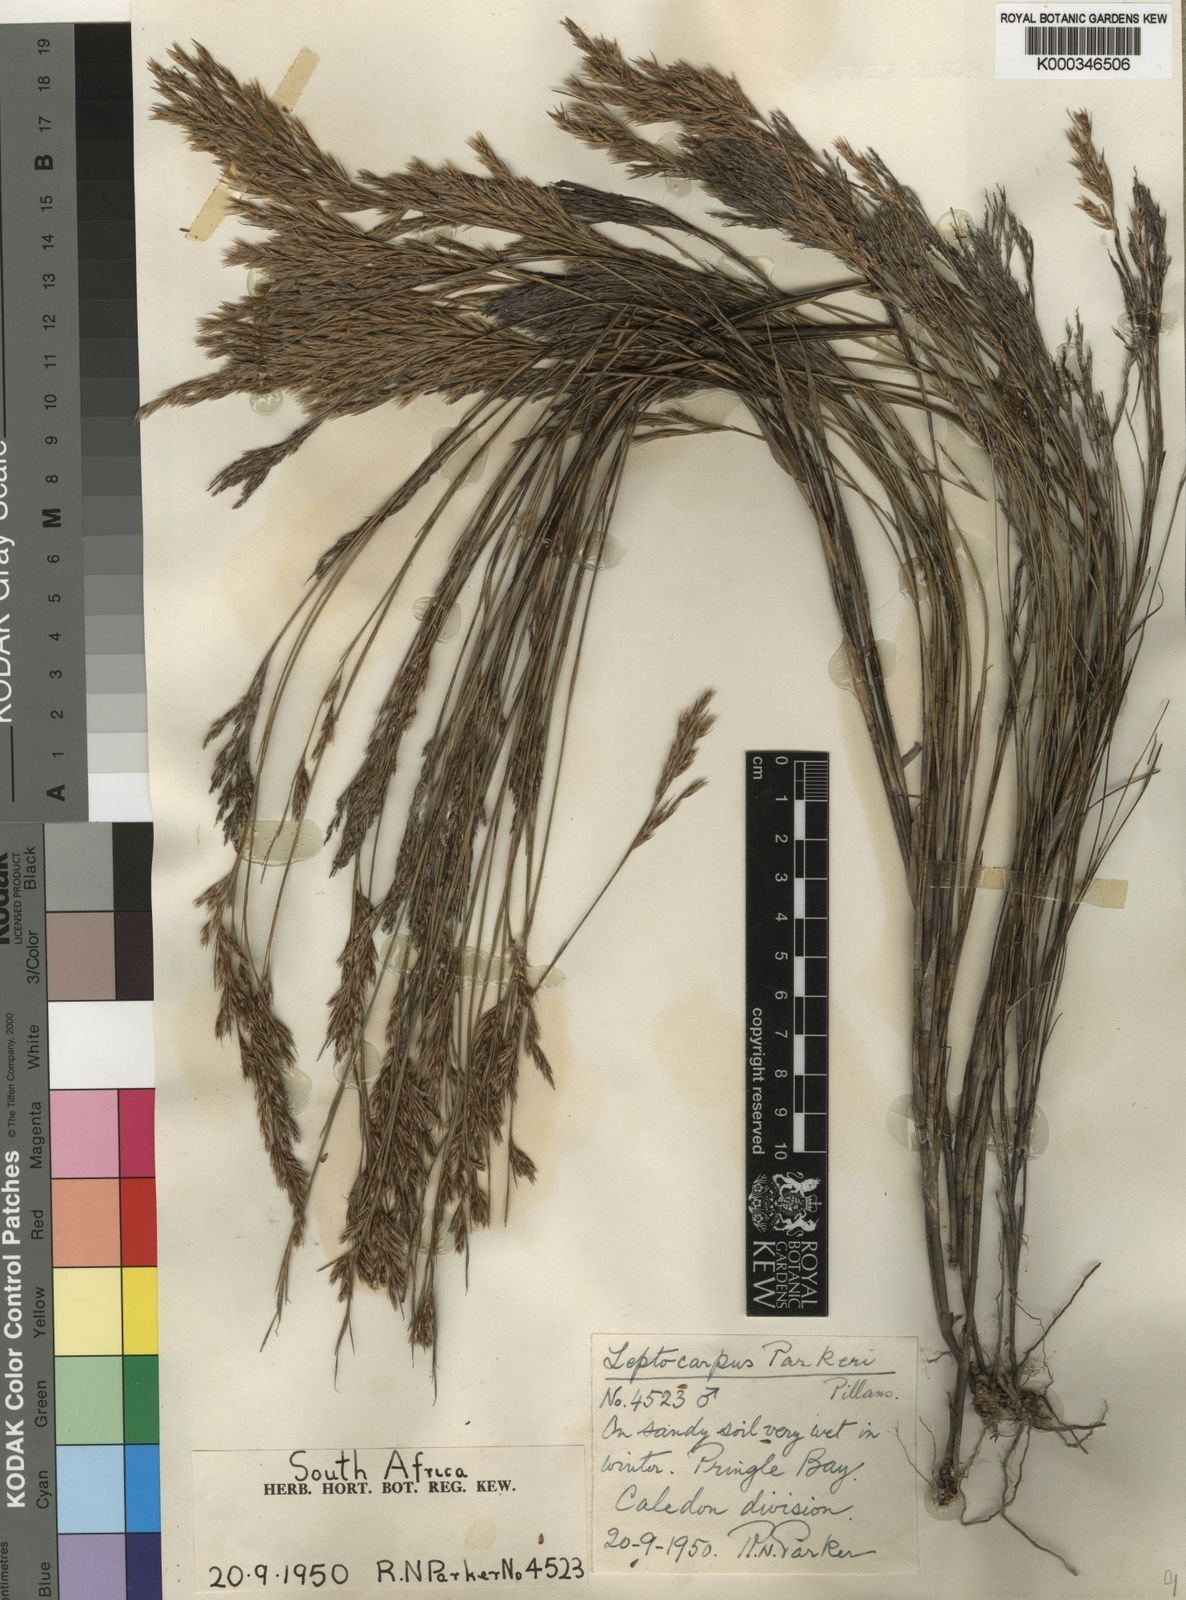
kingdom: Plantae
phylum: Tracheophyta
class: Liliopsida
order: Poales
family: Restionaceae
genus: Restio
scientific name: Restio festuciformis
